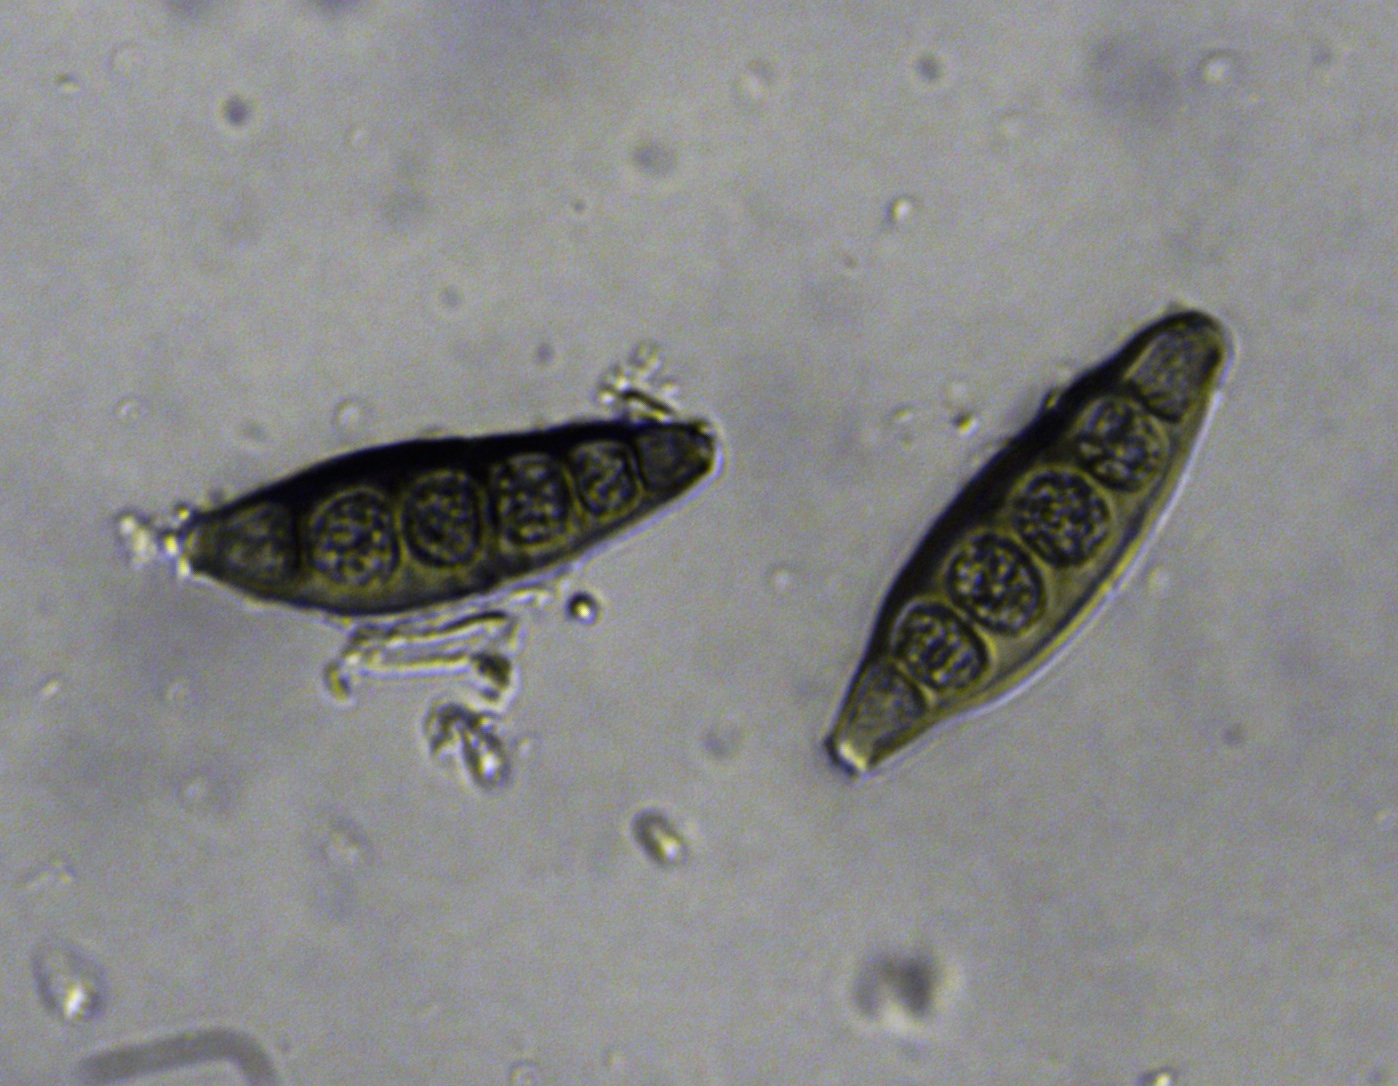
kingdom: Fungi
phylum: Ascomycota
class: Sordariomycetes
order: Diaporthales
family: Coryneaceae
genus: Coryneum
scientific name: Coryneum lanciforme
